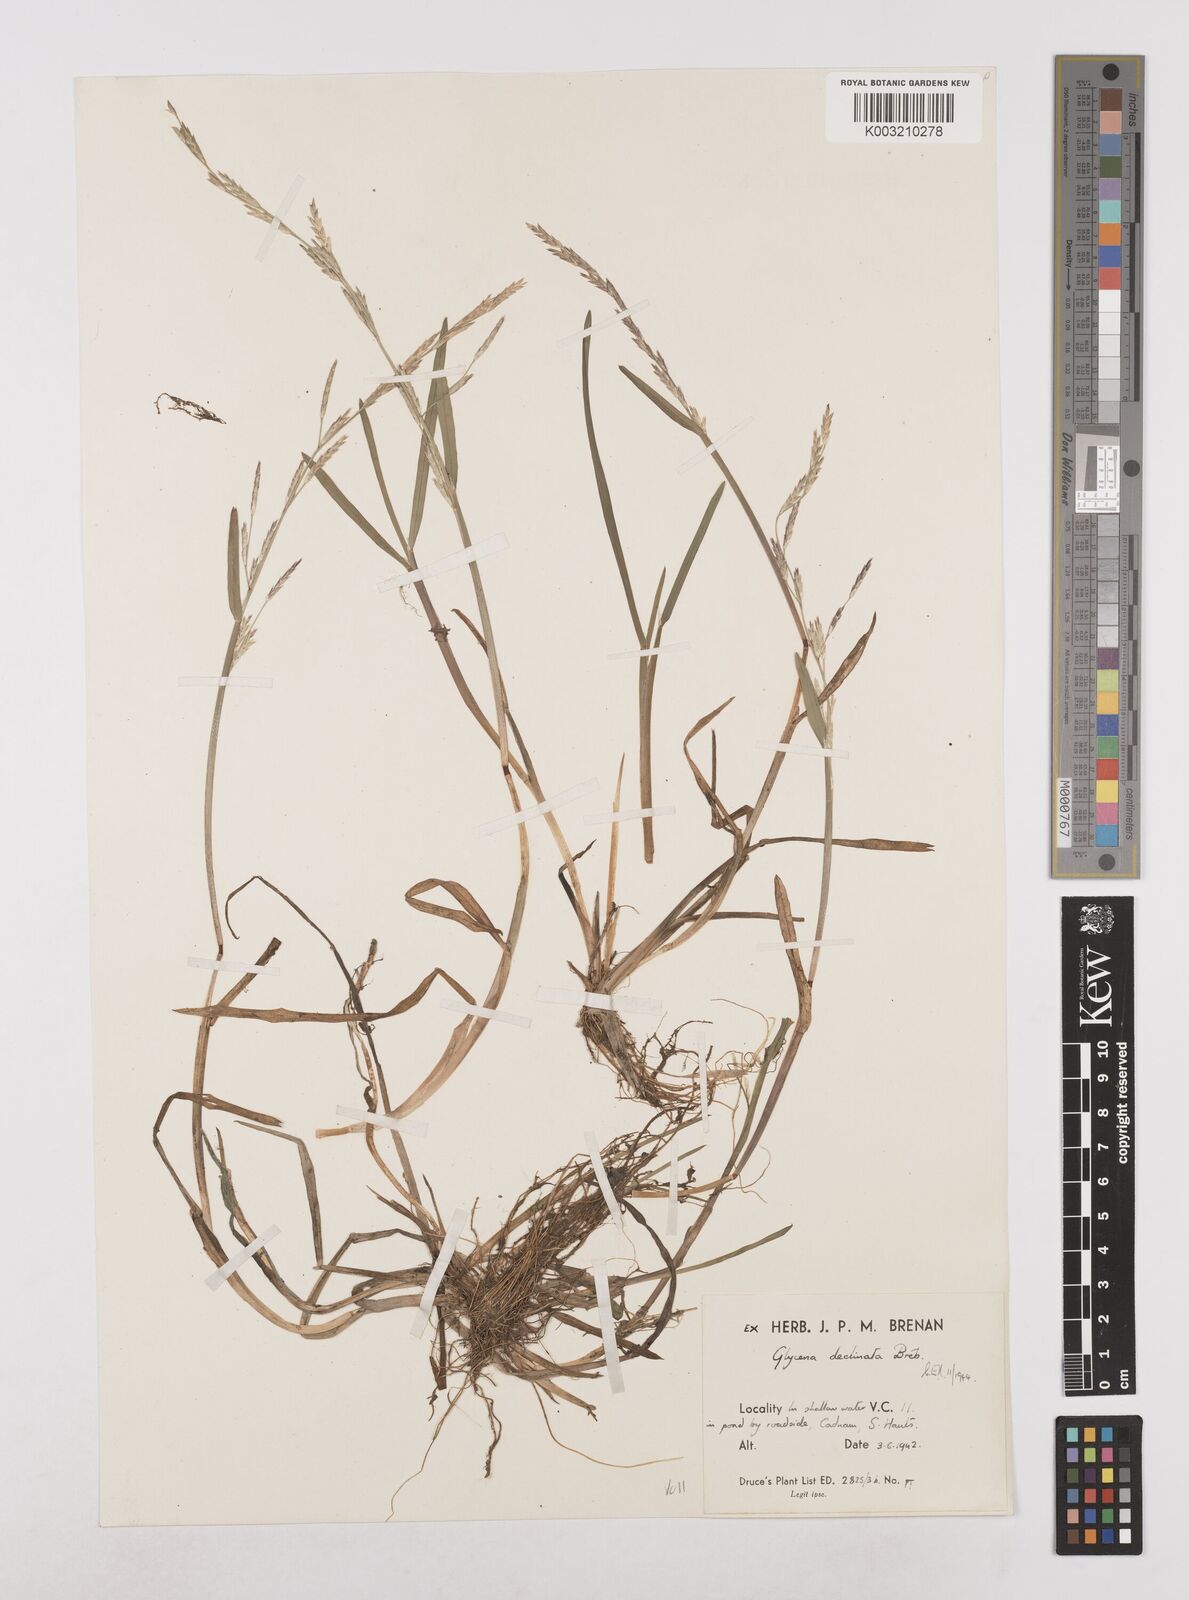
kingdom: Plantae
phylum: Tracheophyta
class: Liliopsida
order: Poales
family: Poaceae
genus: Glyceria
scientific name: Glyceria declinata
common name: Small sweet-grass
